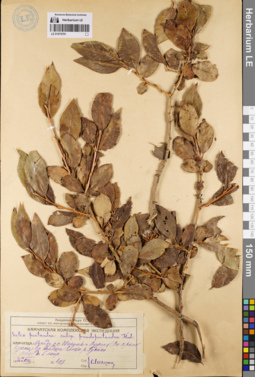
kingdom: Plantae
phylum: Tracheophyta
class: Magnoliopsida
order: Malpighiales
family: Salicaceae
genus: Salix
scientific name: Salix pseudopentandra
